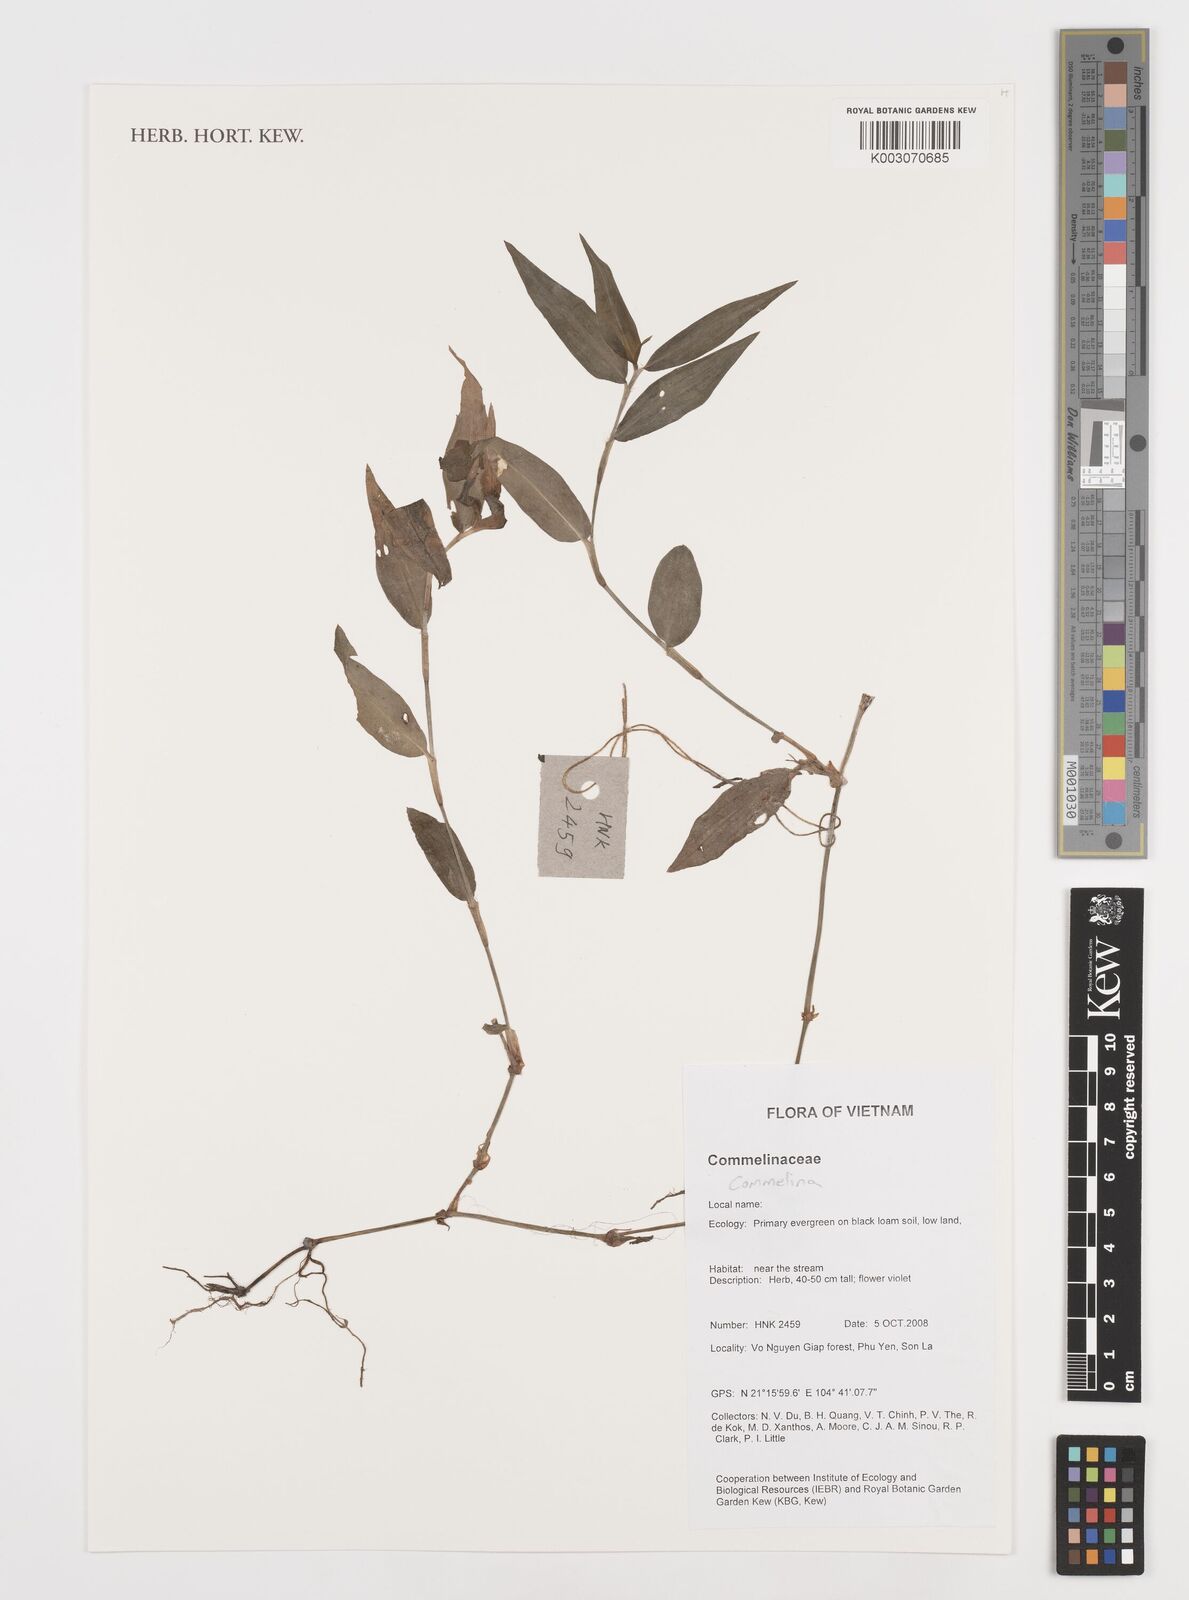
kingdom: Plantae
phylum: Tracheophyta
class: Liliopsida
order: Commelinales
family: Commelinaceae
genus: Commelina
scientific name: Commelina
